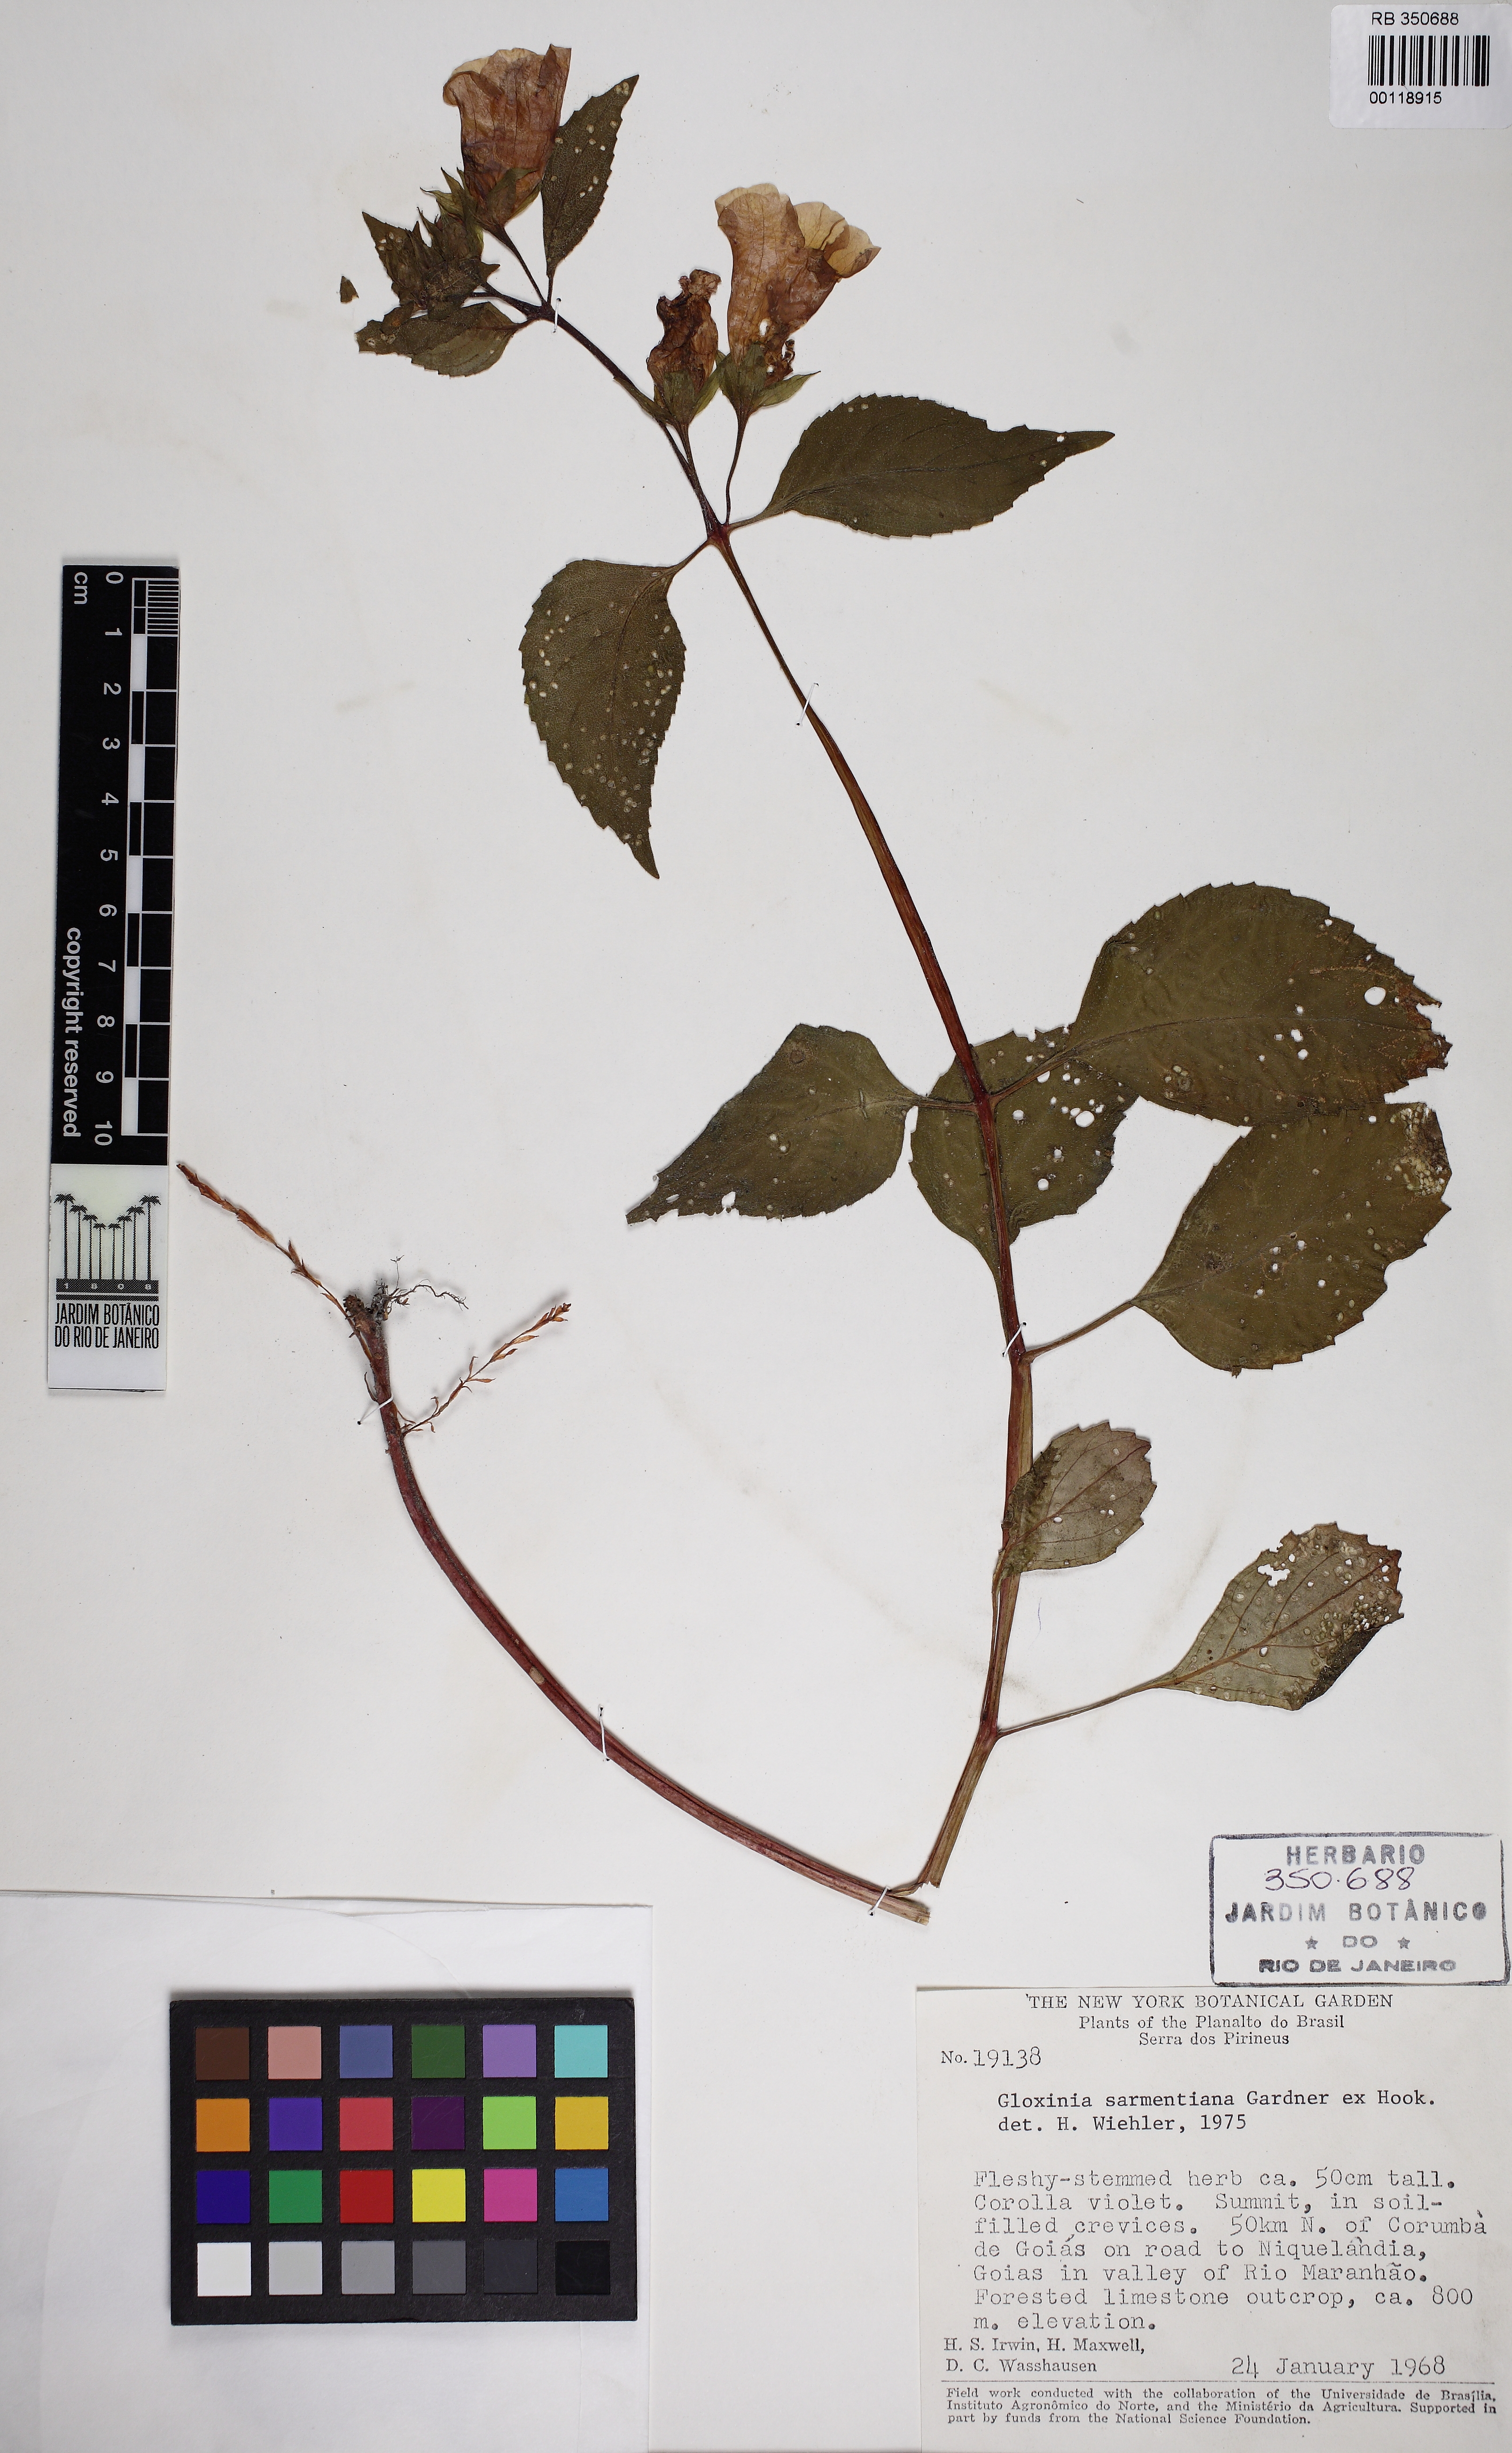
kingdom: Plantae
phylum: Tracheophyta
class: Magnoliopsida
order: Lamiales
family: Gesneriaceae
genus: Sphaerorrhiza
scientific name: Sphaerorrhiza sarmentiana
